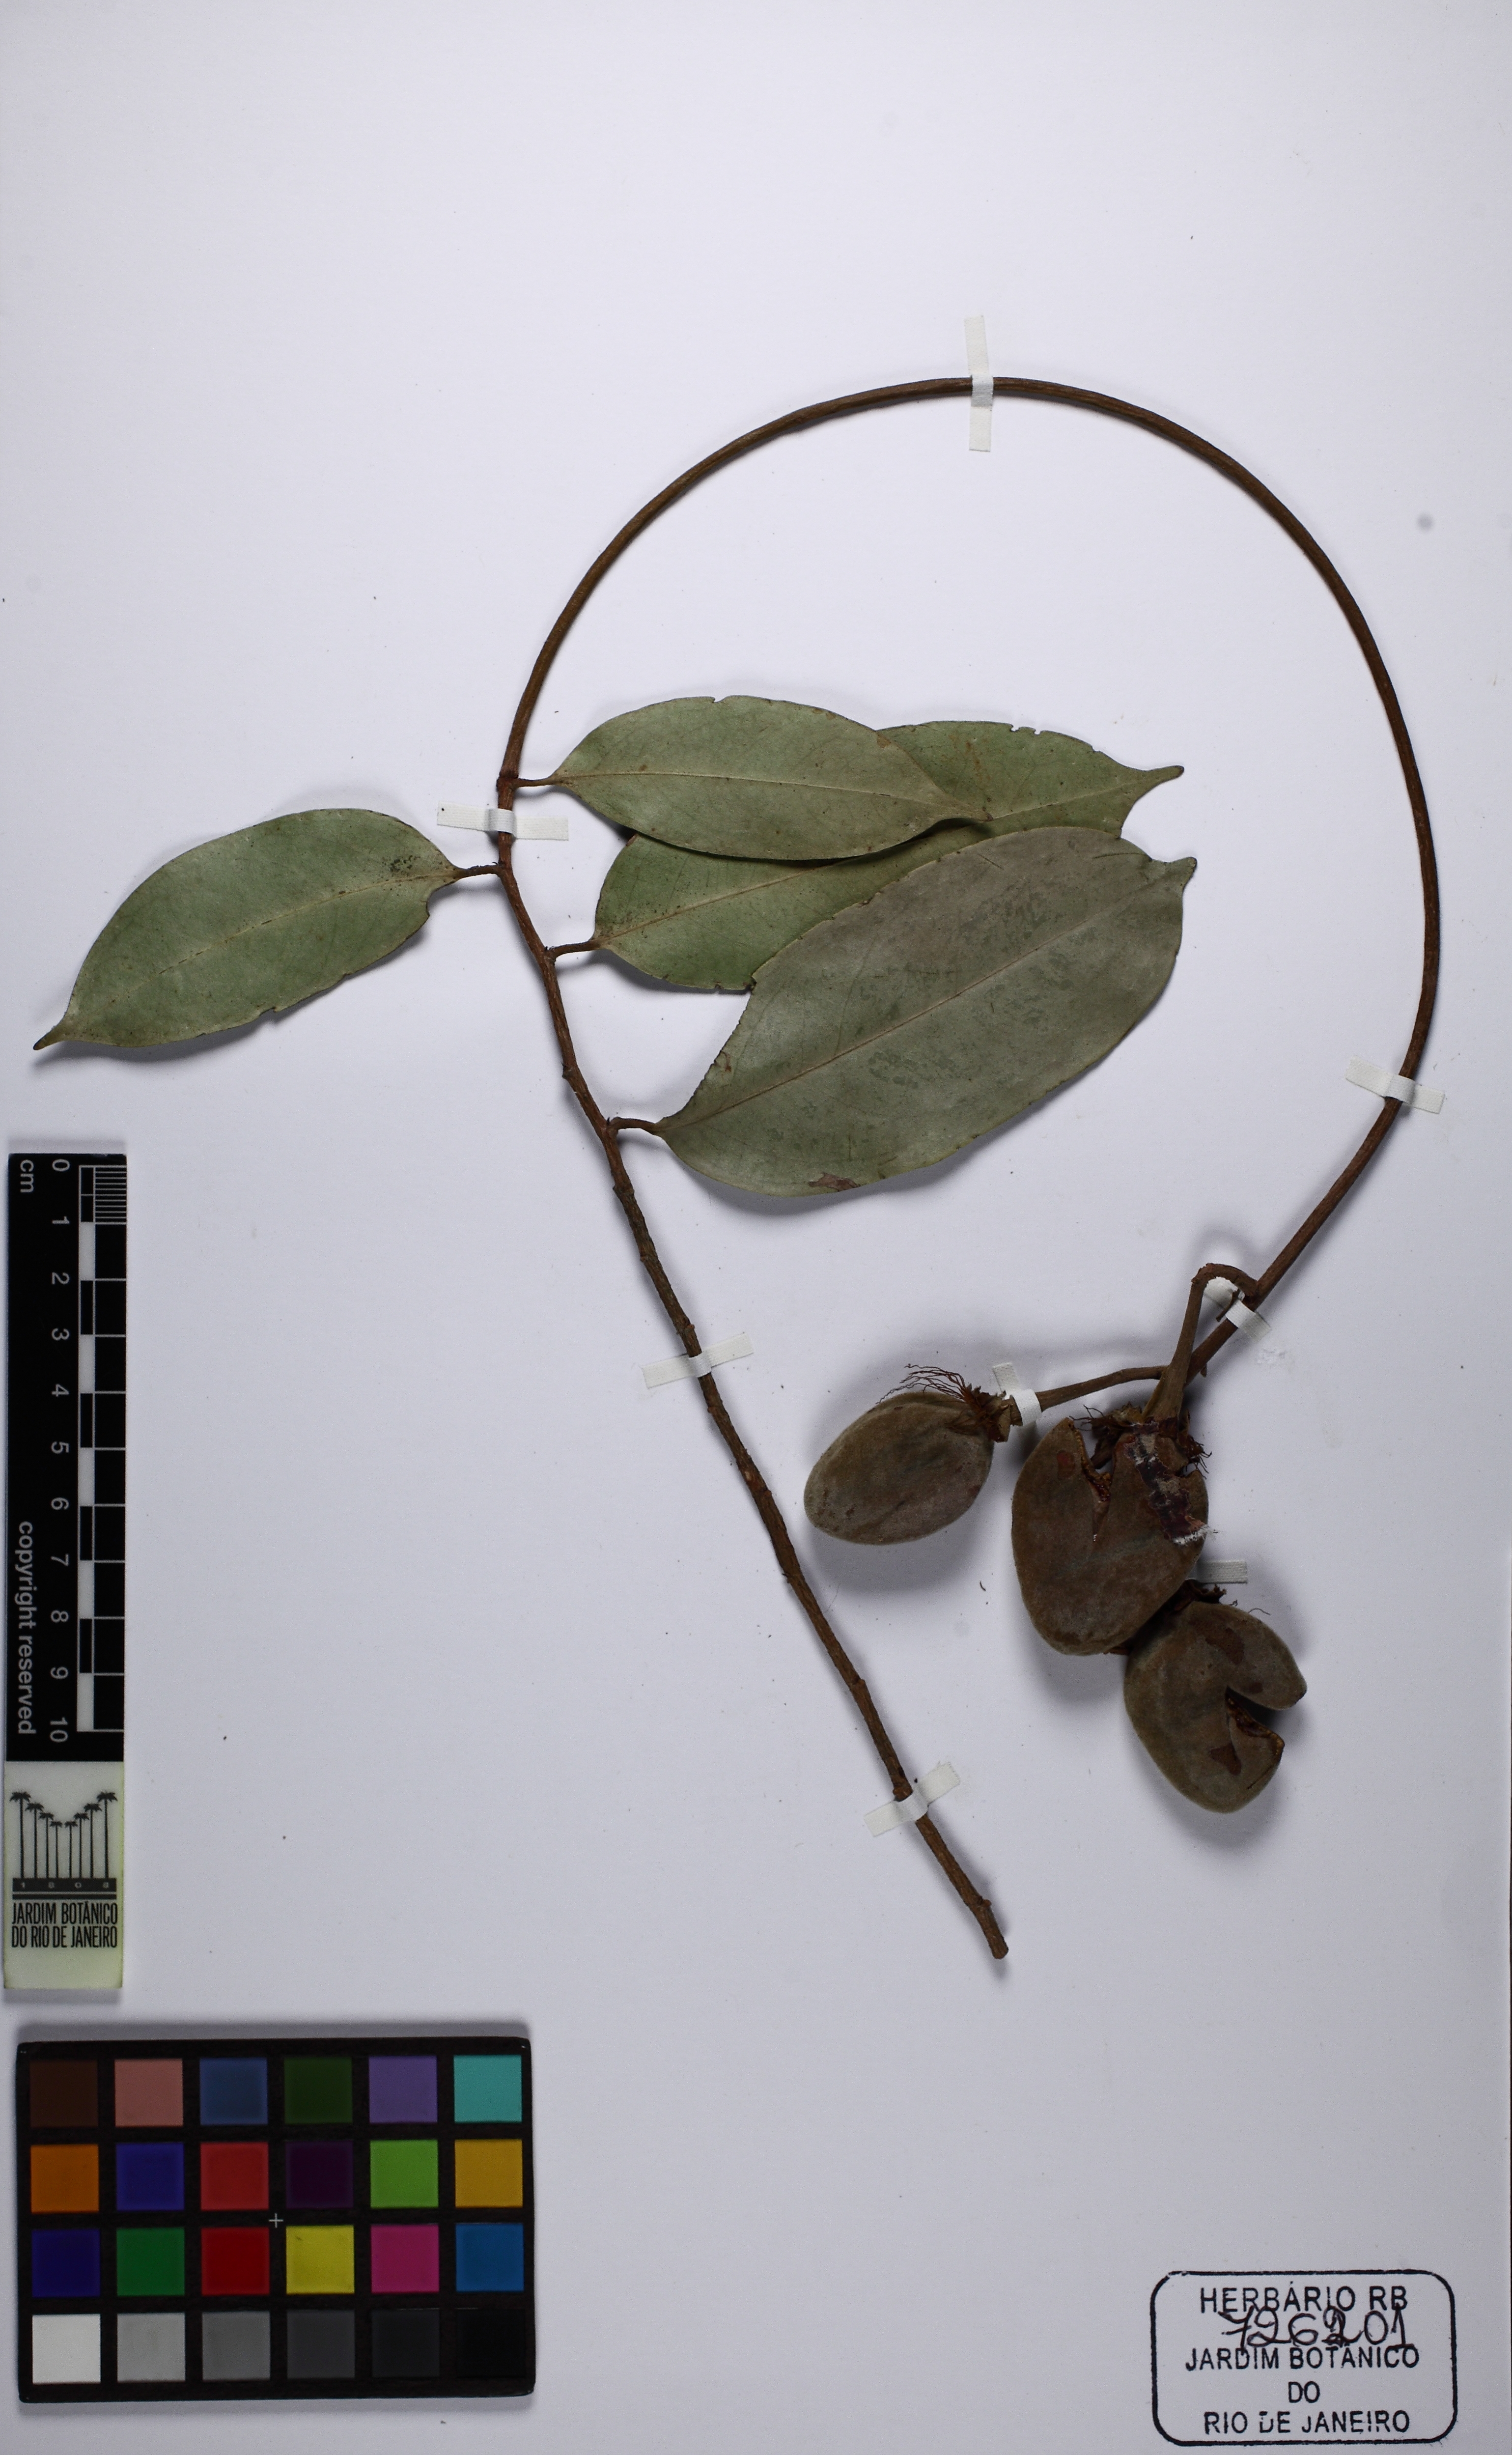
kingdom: Plantae
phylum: Tracheophyta
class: Magnoliopsida
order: Malpighiales
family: Chrysobalanaceae
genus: Acioa
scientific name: Acioa longipendula
